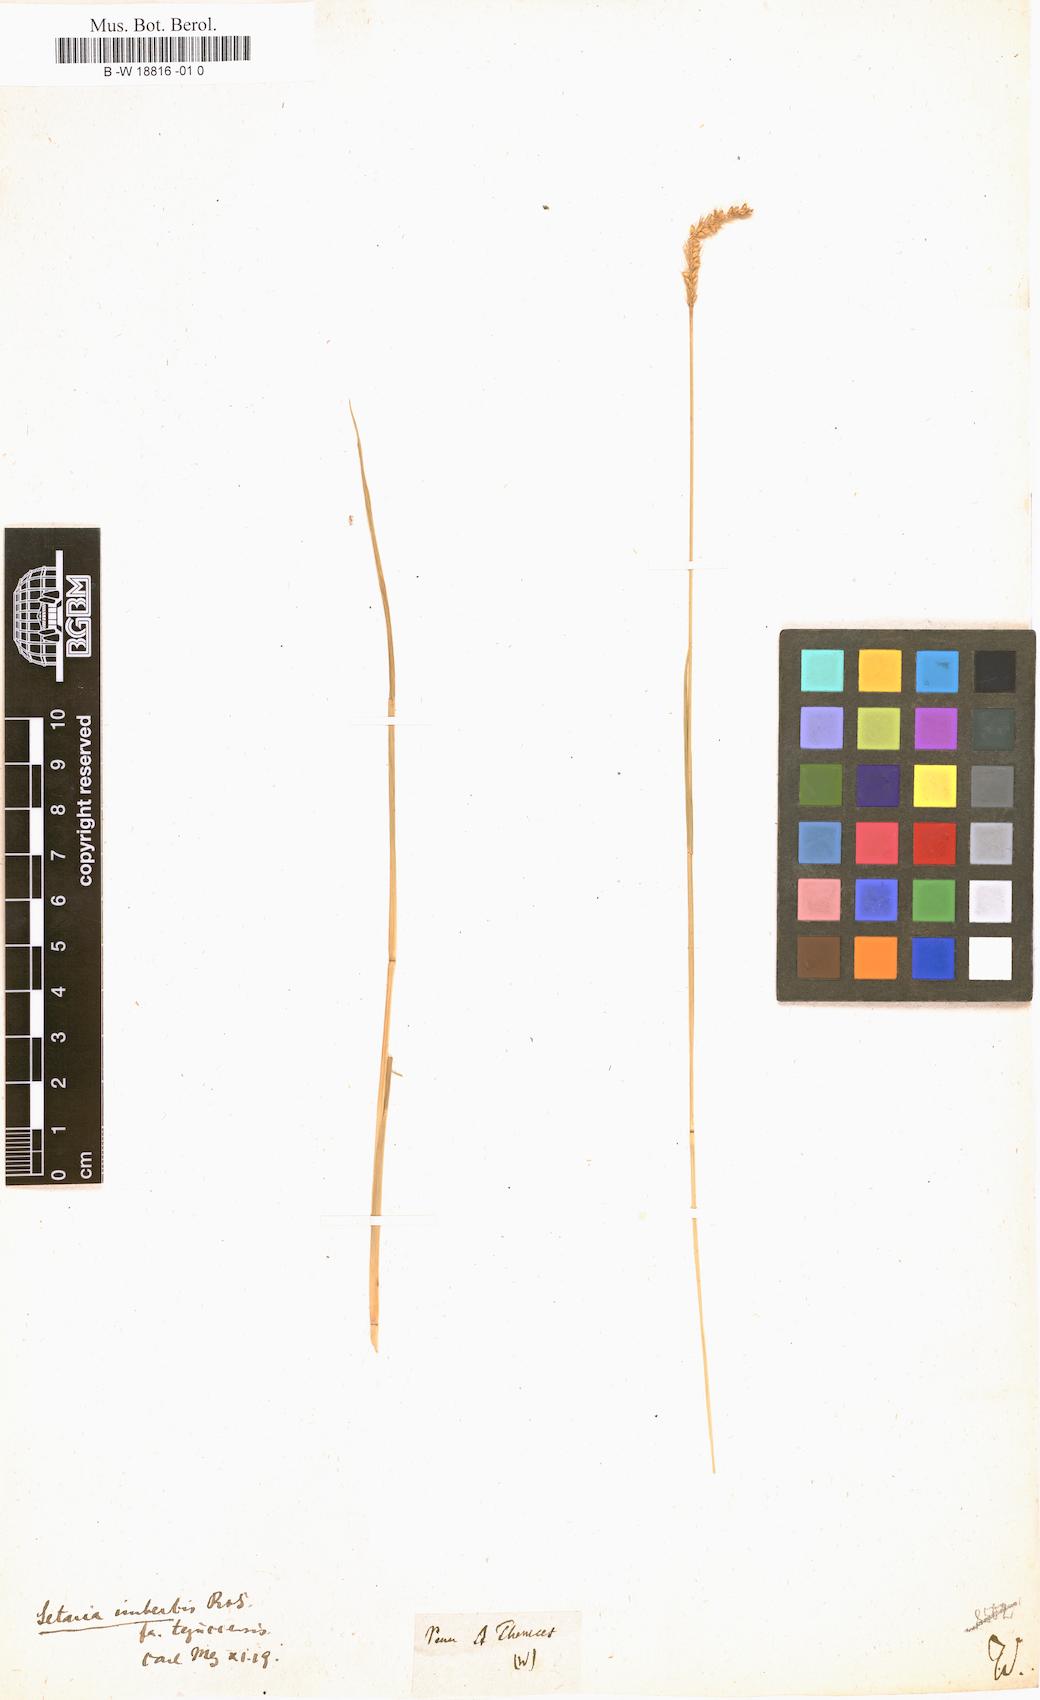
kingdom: Plantae
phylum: Tracheophyta
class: Liliopsida
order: Poales
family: Poaceae
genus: Panicum
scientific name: Panicum
